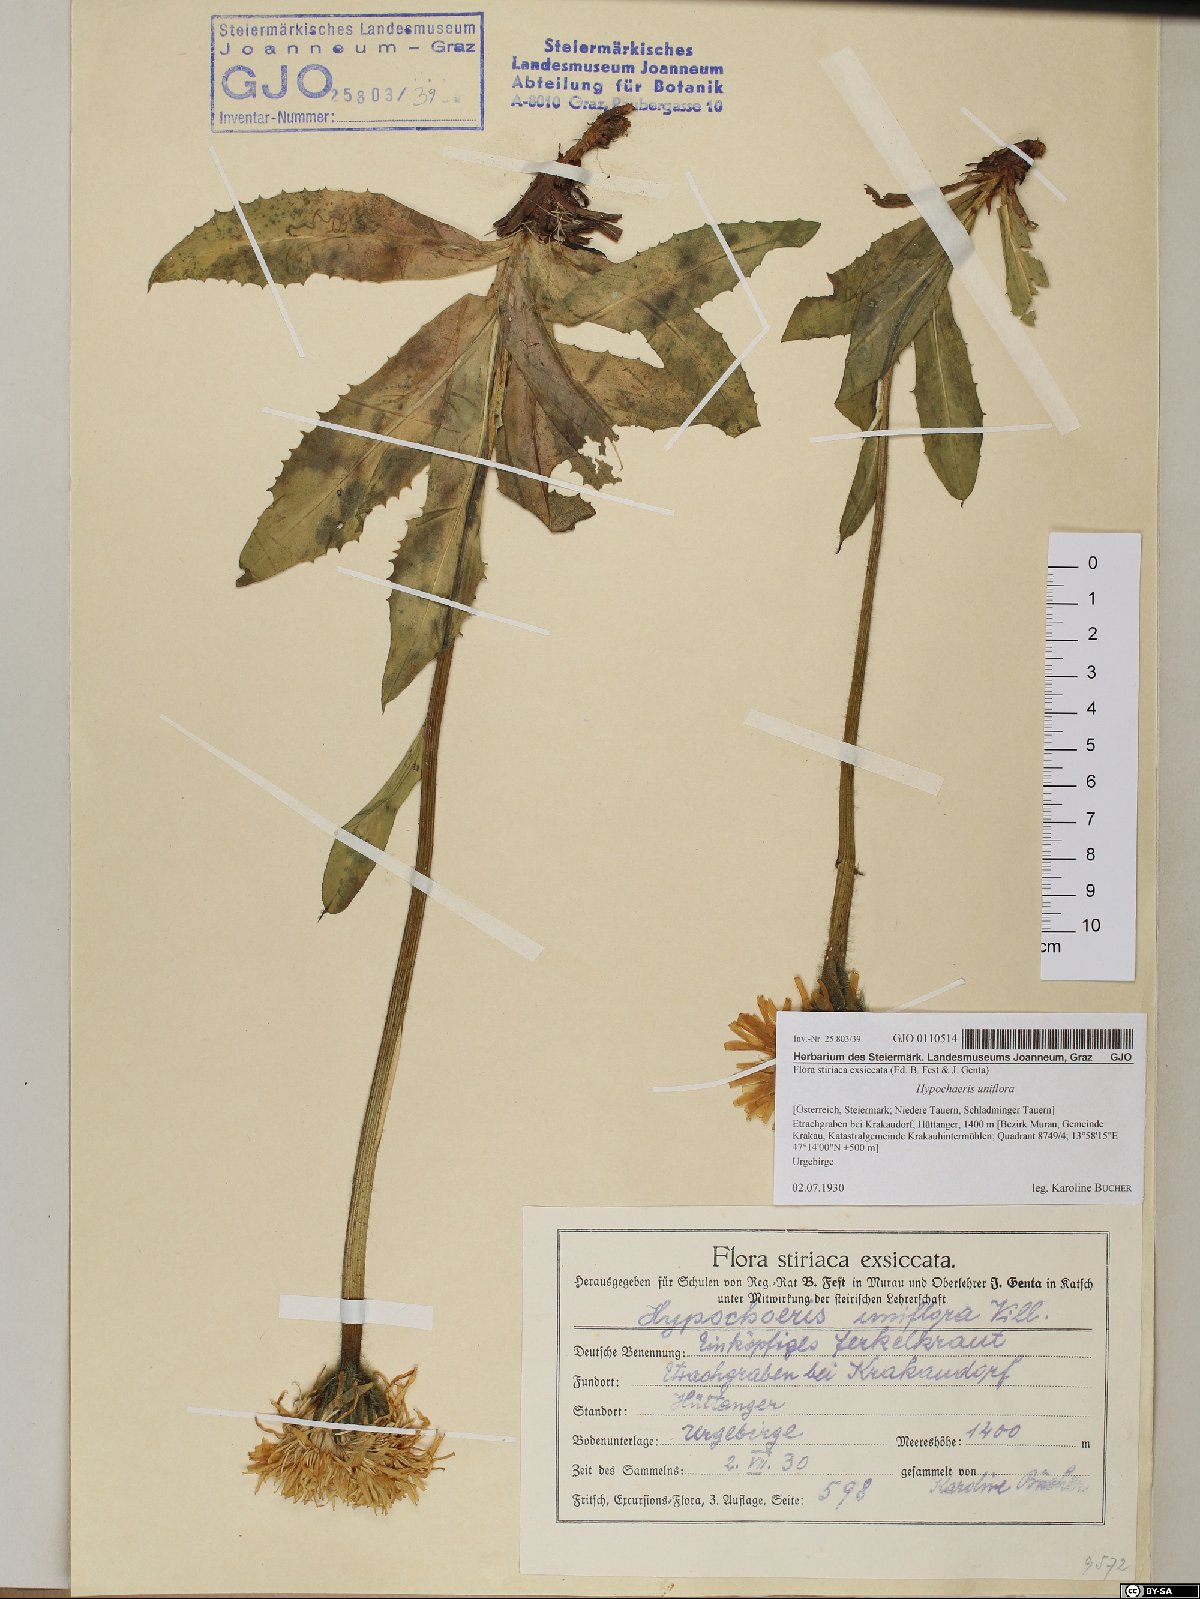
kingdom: Plantae
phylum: Tracheophyta
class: Magnoliopsida
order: Asterales
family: Asteraceae
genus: Trommsdorffia
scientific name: Trommsdorffia uniflora
